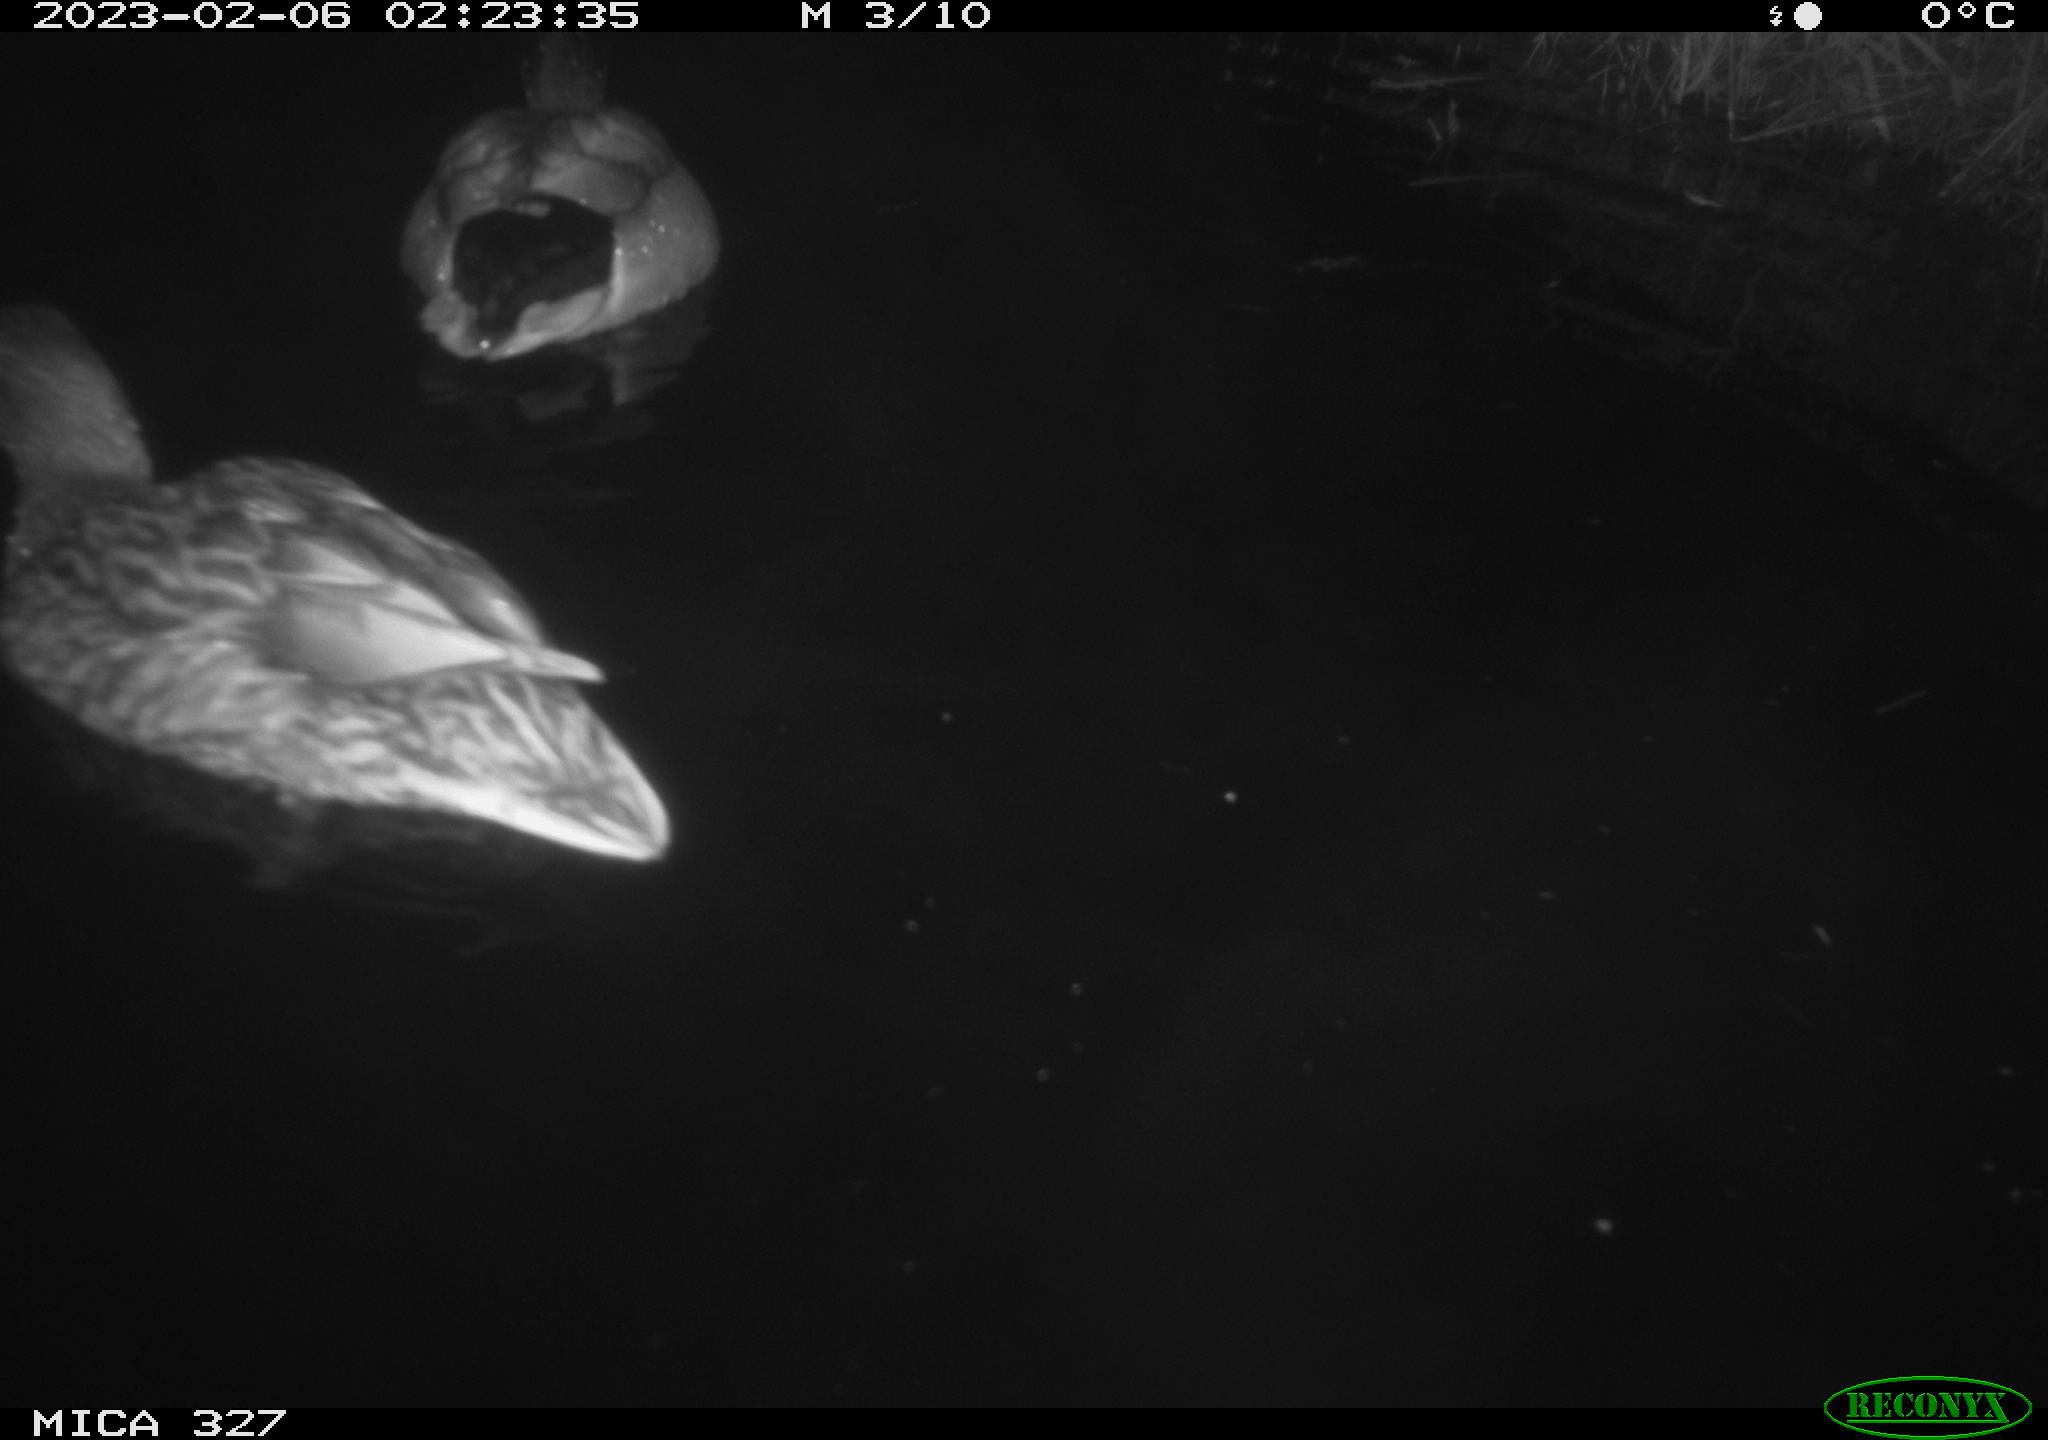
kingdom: Animalia
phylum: Chordata
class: Aves
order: Anseriformes
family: Anatidae
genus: Anas
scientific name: Anas
